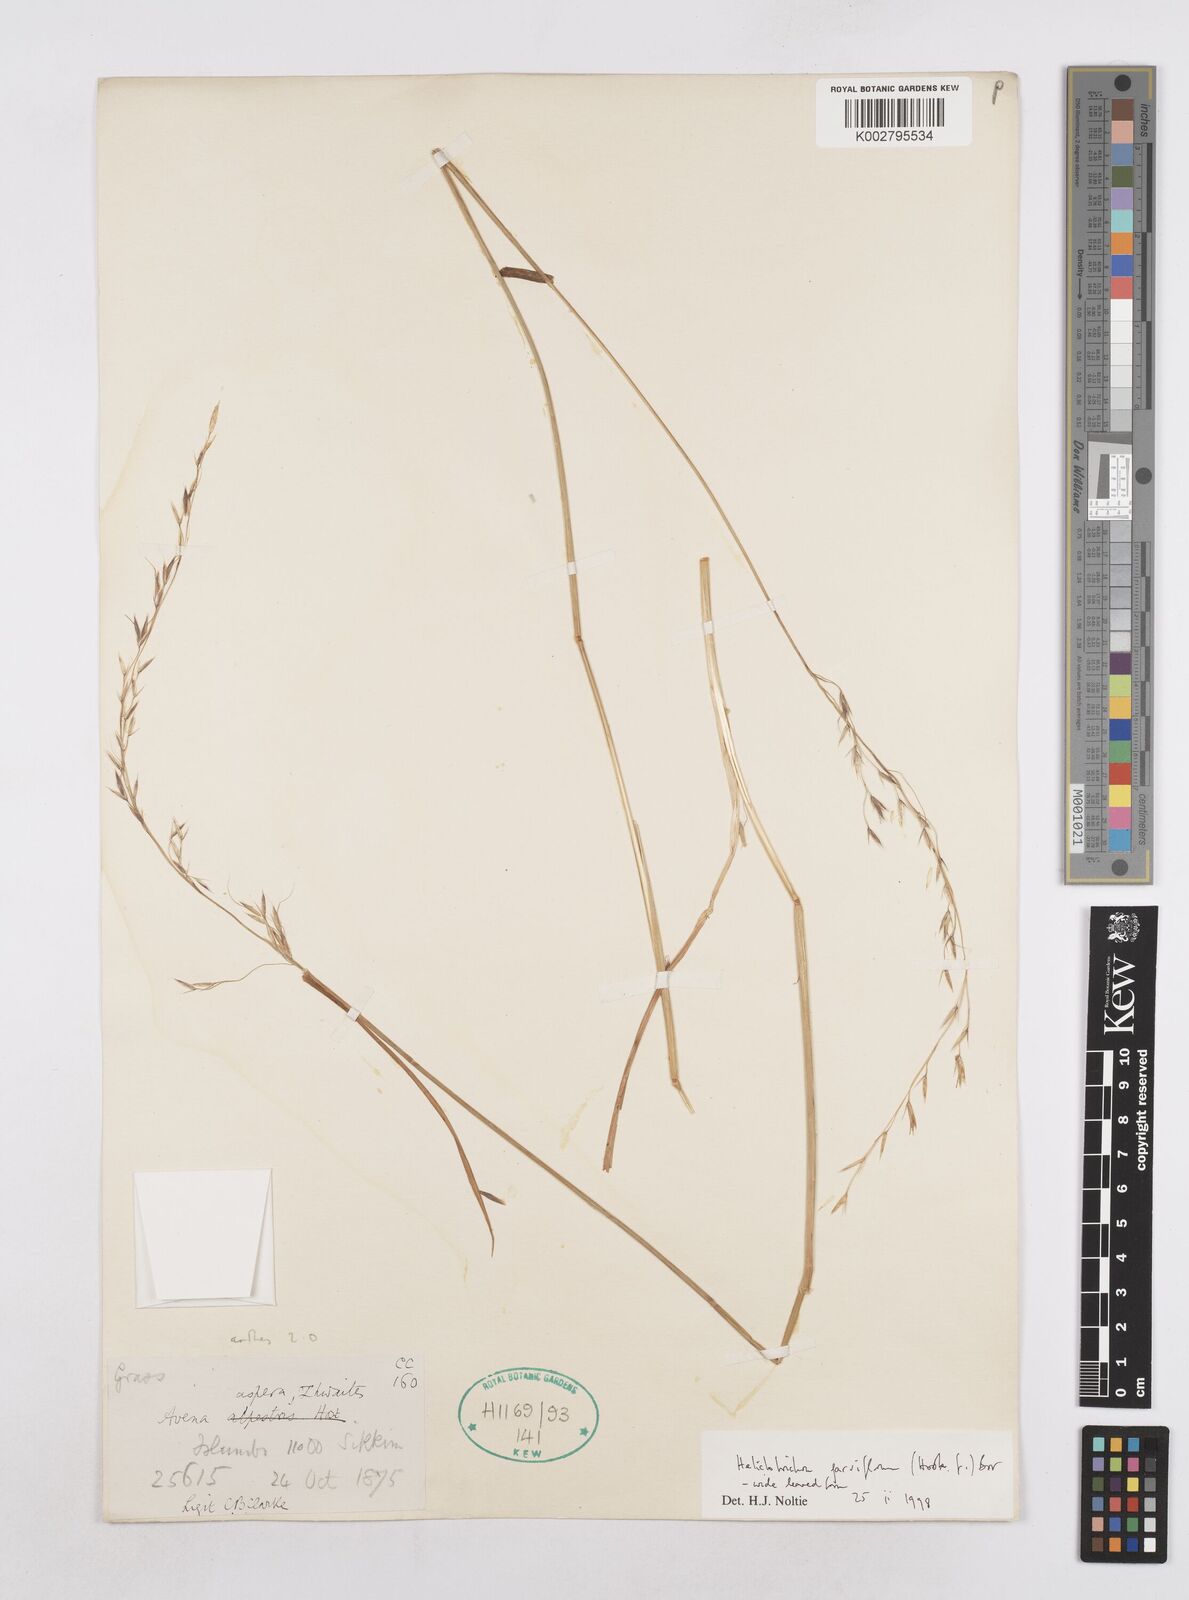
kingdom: Plantae
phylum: Tracheophyta
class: Liliopsida
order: Poales
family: Poaceae
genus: Trisetopsis
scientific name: Trisetopsis junghuhnii
